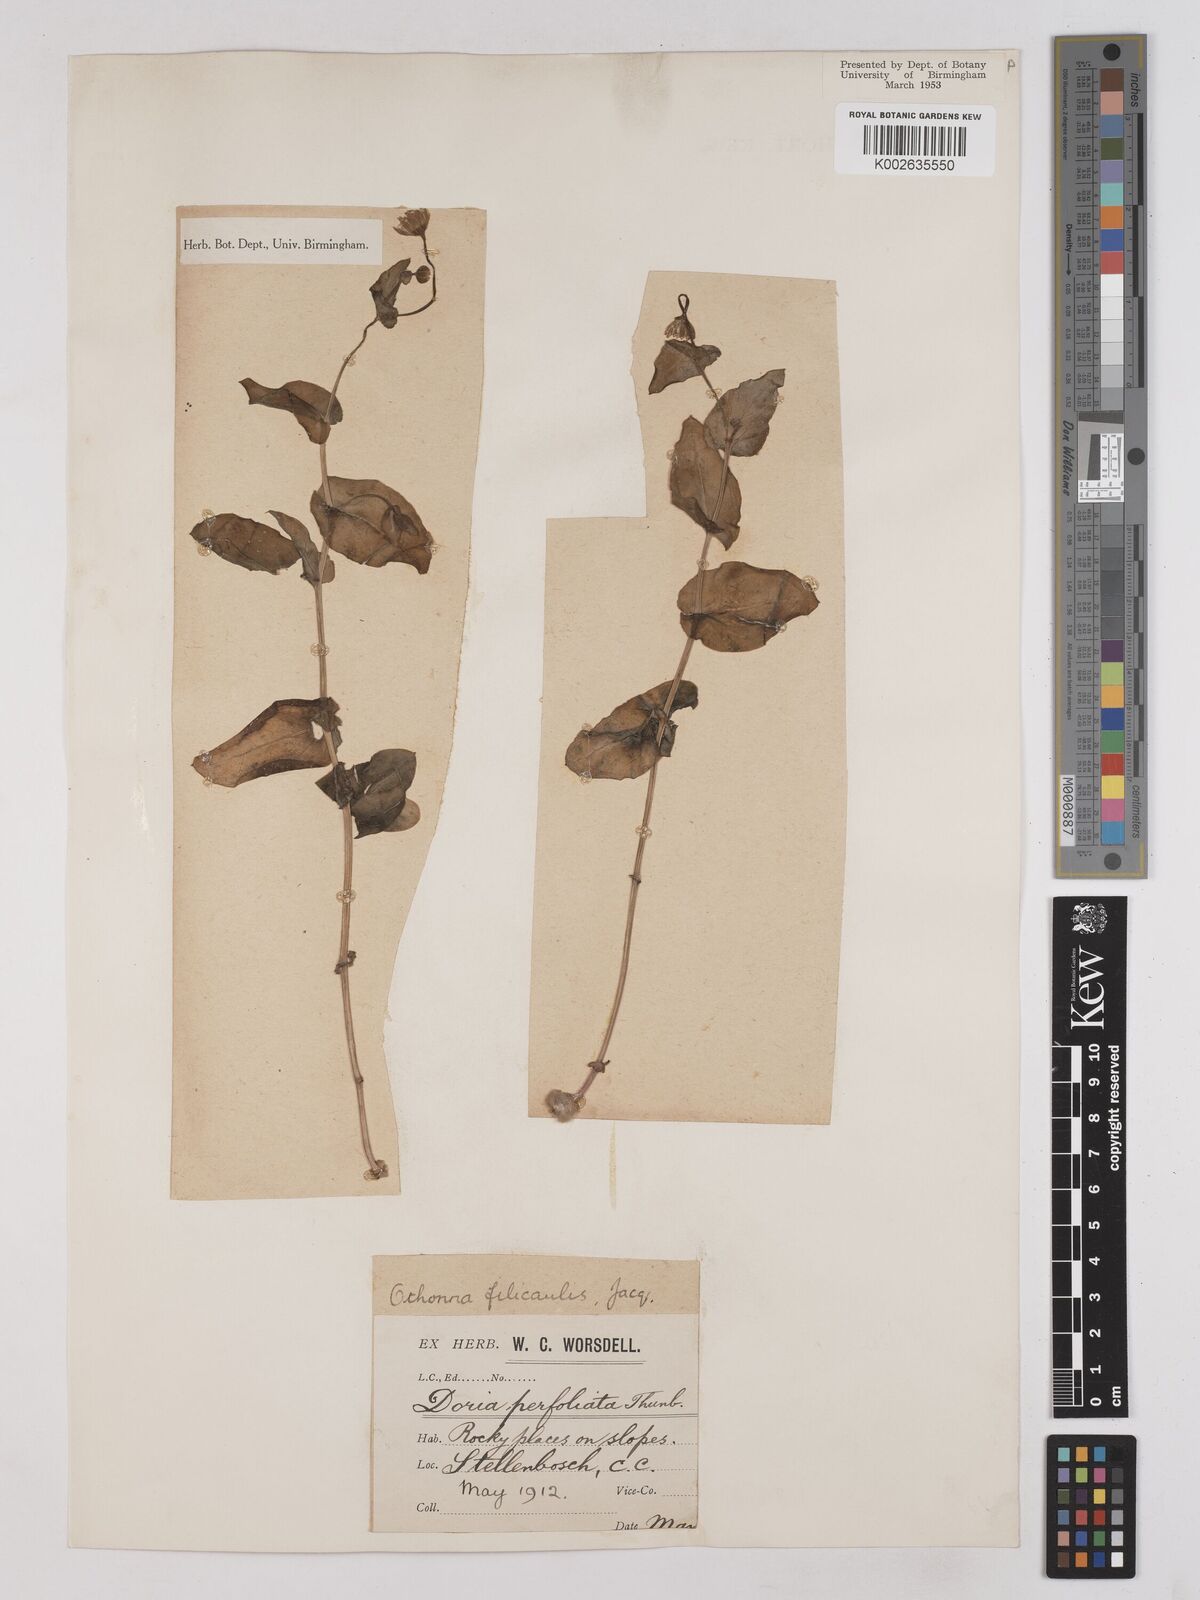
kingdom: Plantae
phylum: Tracheophyta
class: Magnoliopsida
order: Asterales
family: Asteraceae
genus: Othonna
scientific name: Othonna perfoliata
